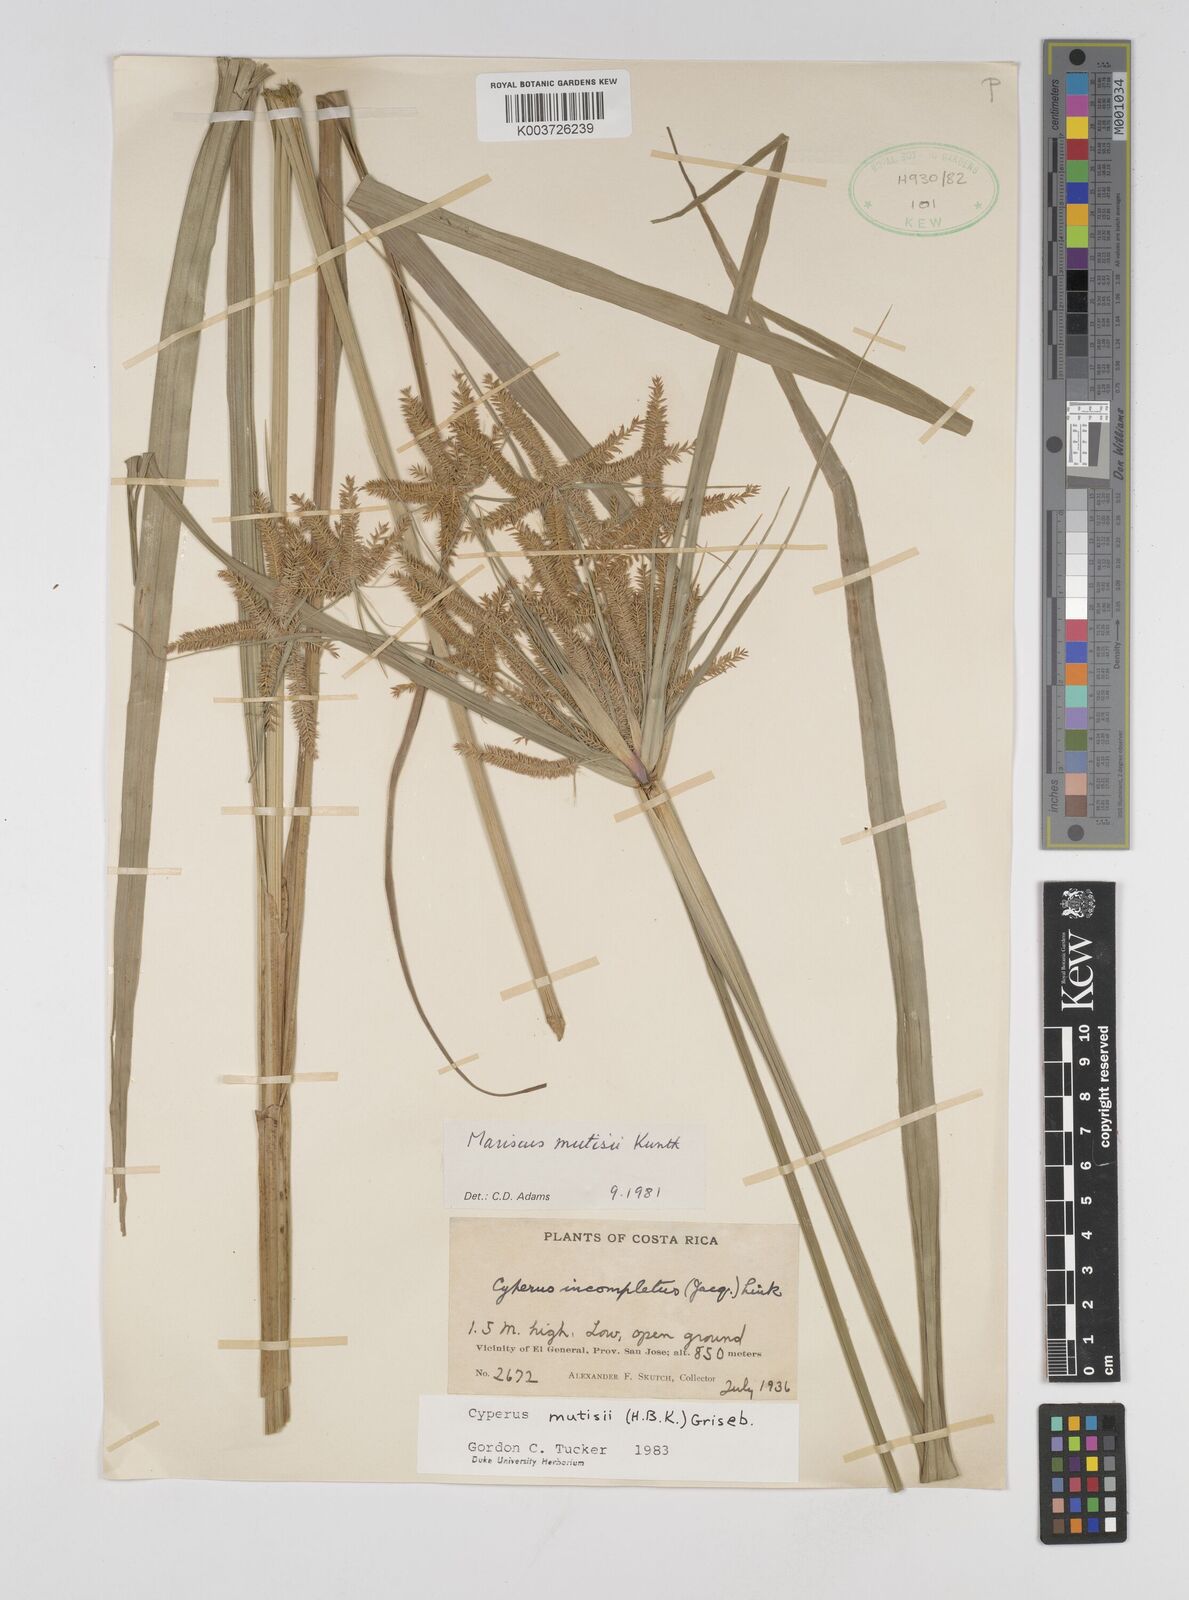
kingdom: Plantae
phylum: Tracheophyta
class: Liliopsida
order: Poales
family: Cyperaceae
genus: Cyperus
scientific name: Cyperus mutisii
